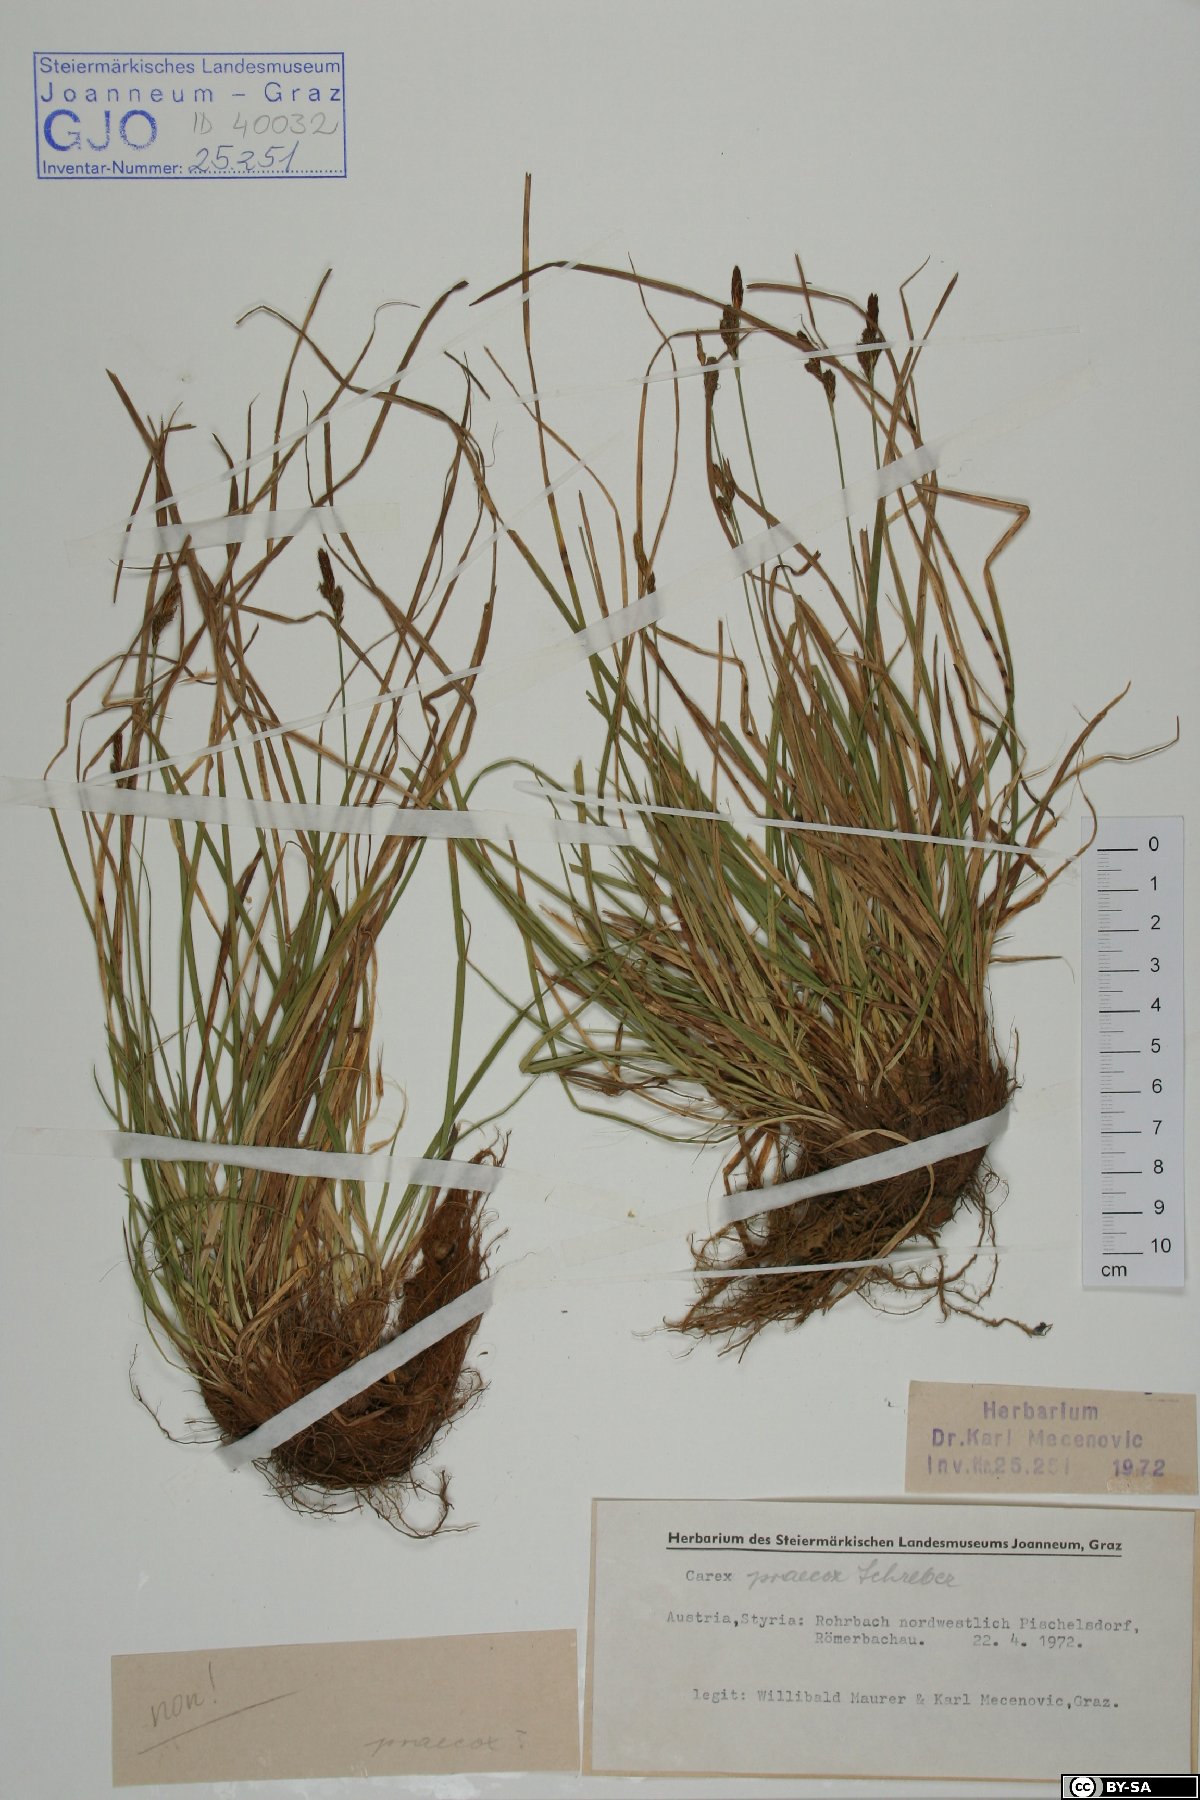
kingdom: Plantae
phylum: Tracheophyta
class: Liliopsida
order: Poales
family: Cyperaceae
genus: Carex
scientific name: Carex praecox
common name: Early sedge
